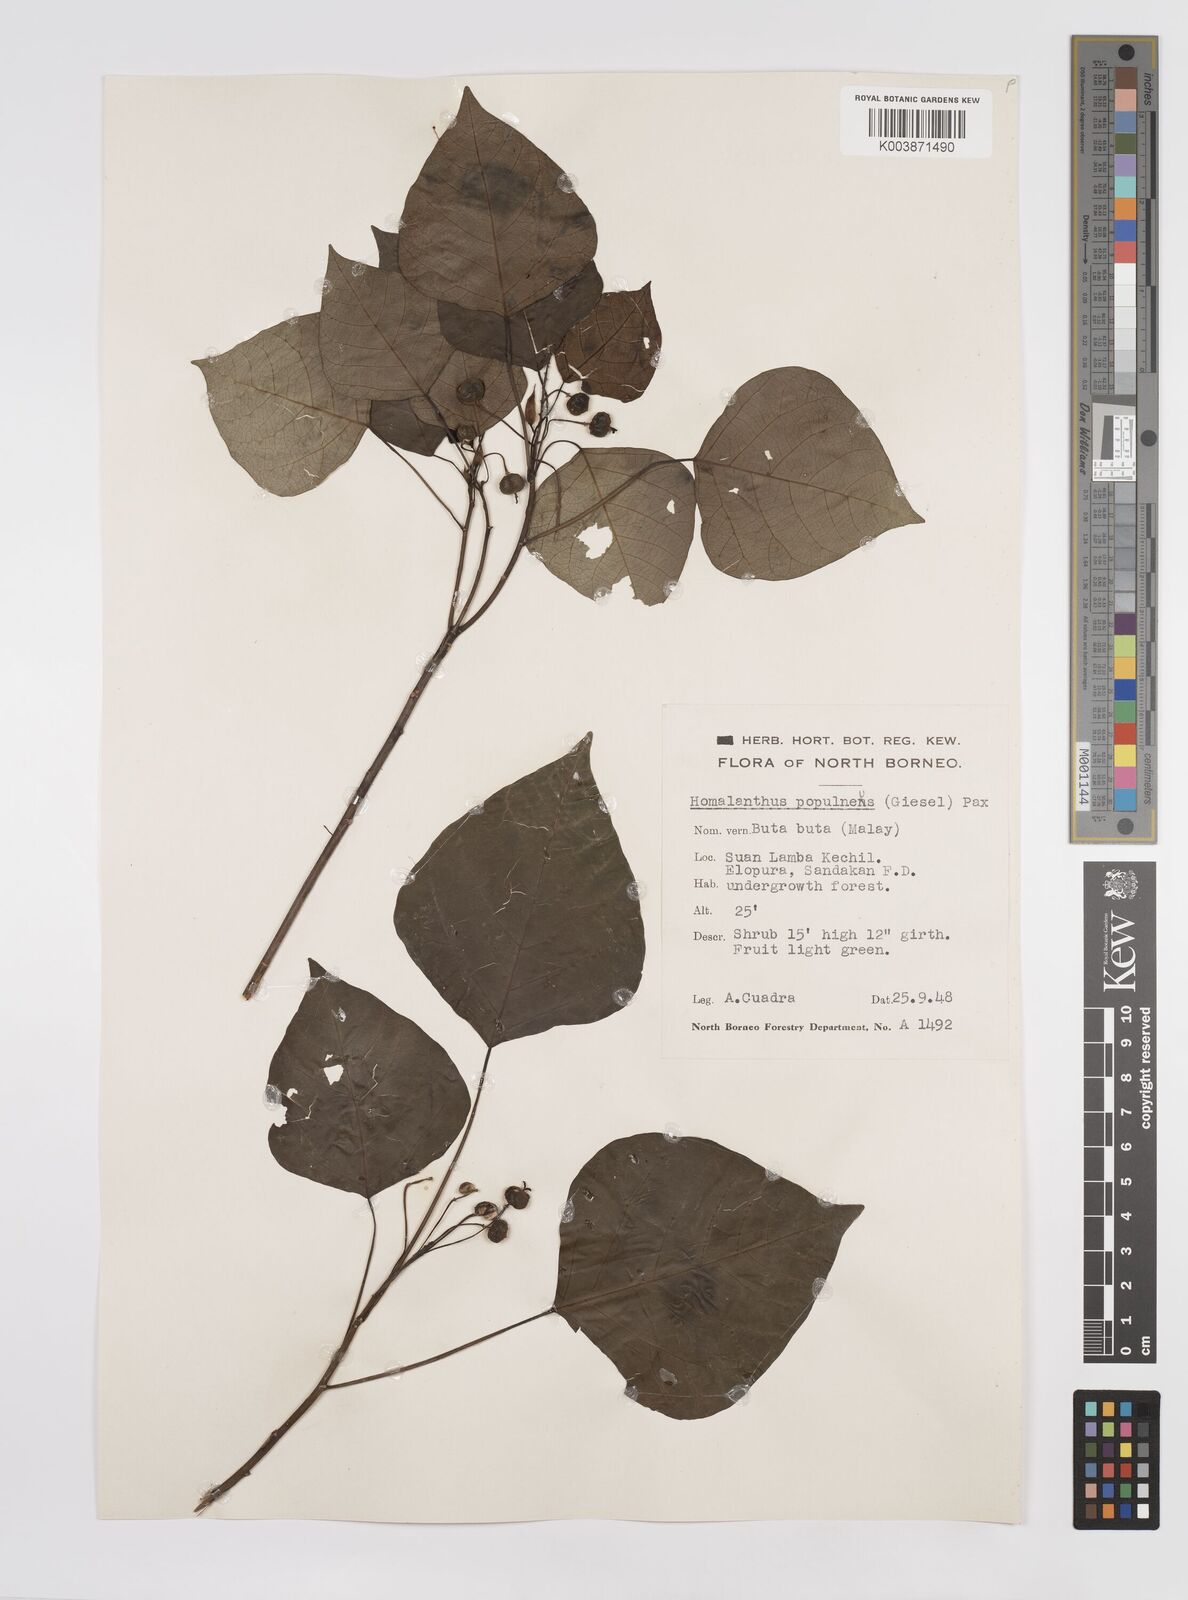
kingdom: Plantae
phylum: Tracheophyta
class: Magnoliopsida
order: Malpighiales
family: Euphorbiaceae
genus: Homalanthus
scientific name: Homalanthus populneus
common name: Spurge
